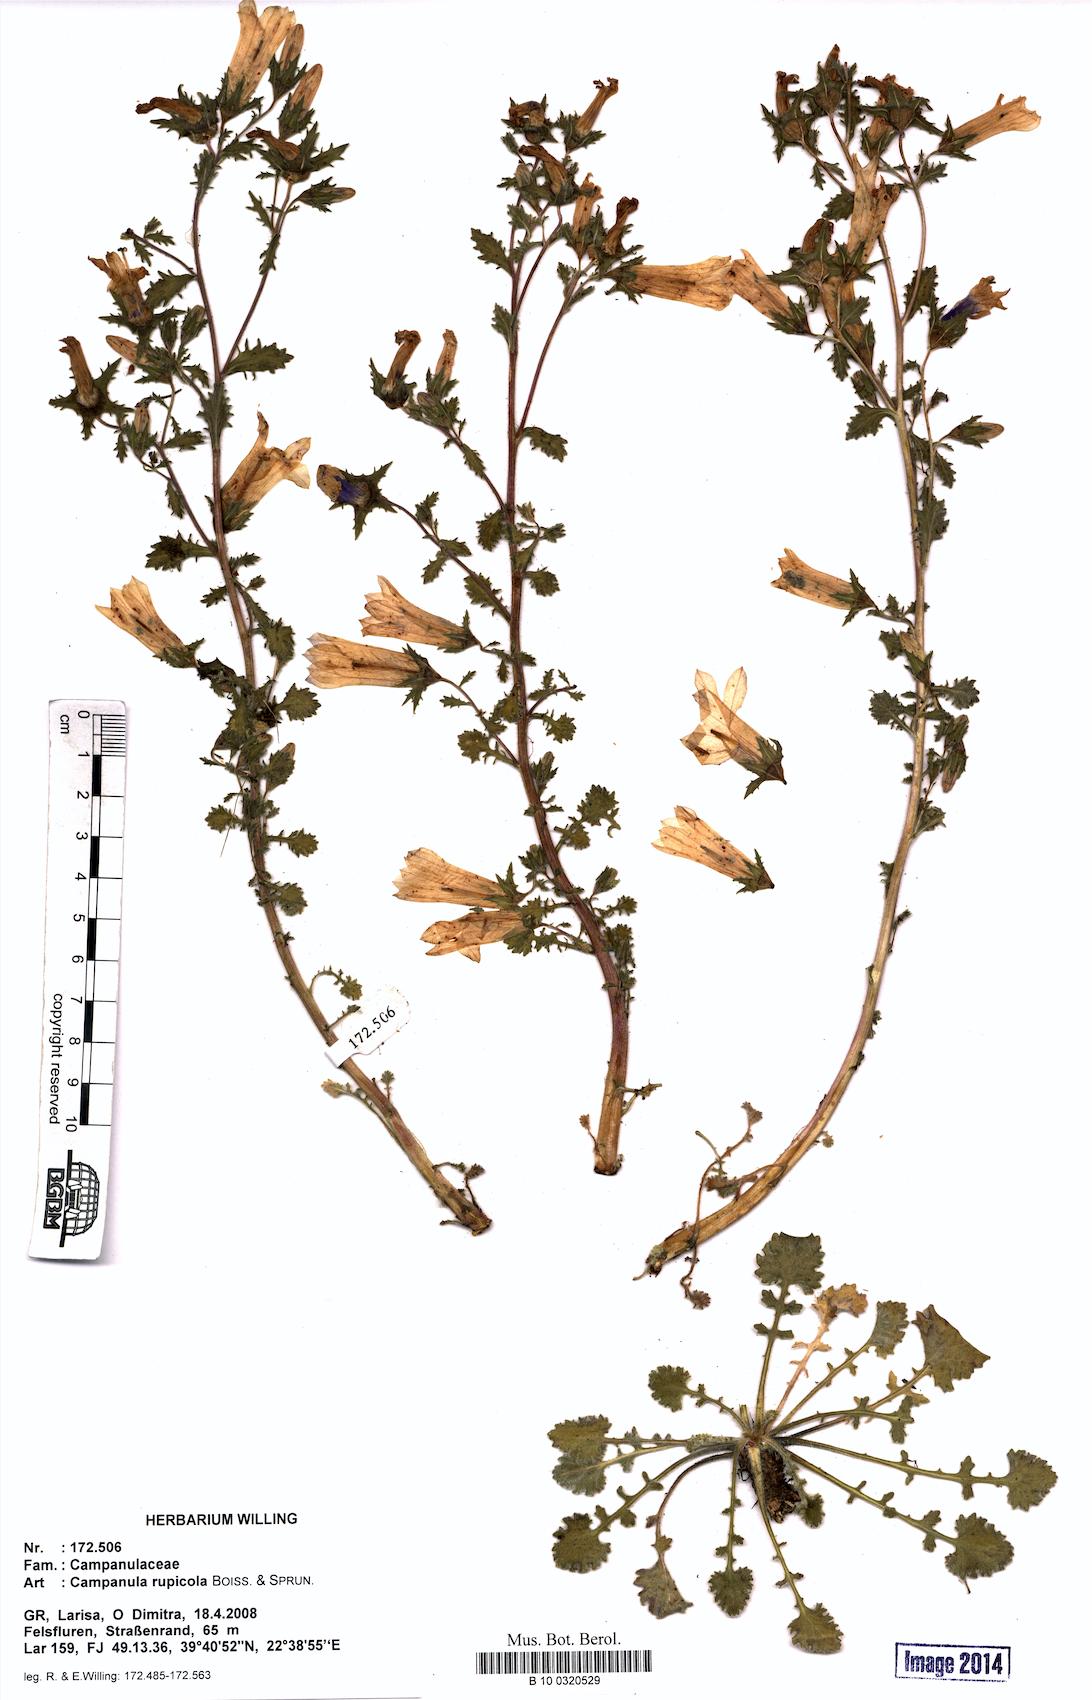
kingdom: Plantae
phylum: Tracheophyta
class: Magnoliopsida
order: Asterales
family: Campanulaceae
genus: Campanula
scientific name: Campanula rupicola
